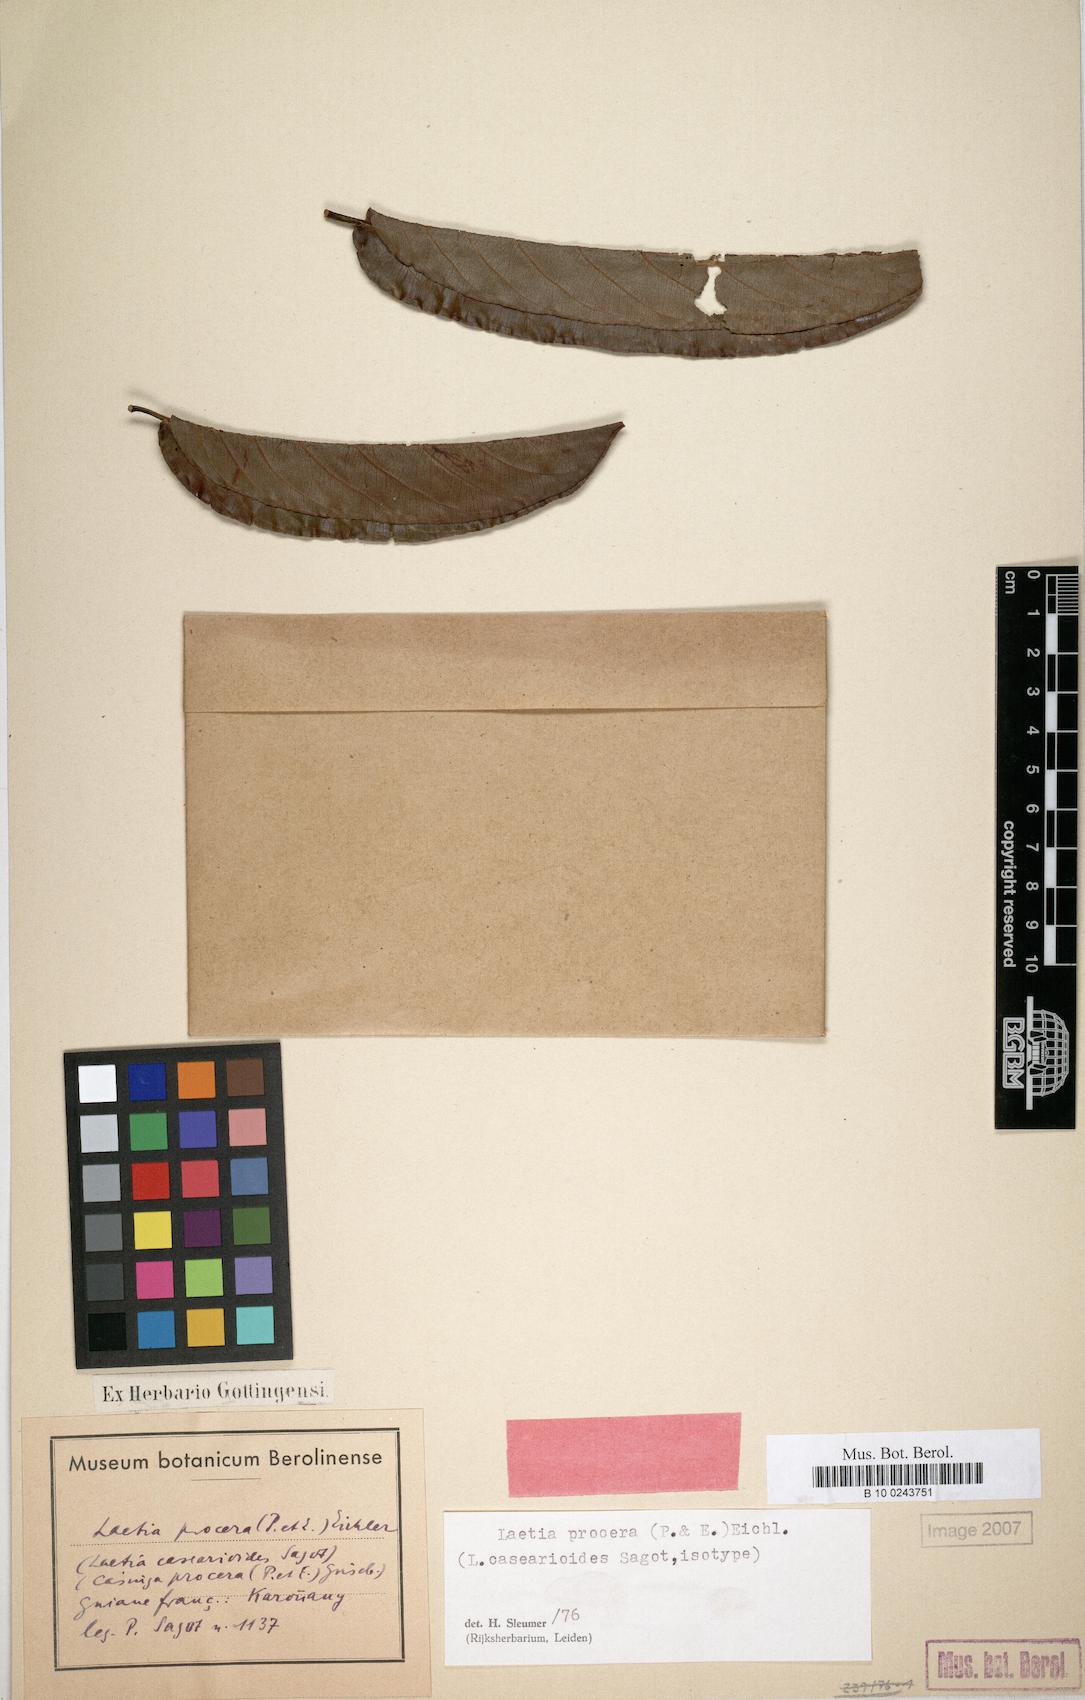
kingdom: Plantae
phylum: Tracheophyta
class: Magnoliopsida
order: Malpighiales
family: Salicaceae
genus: Casearia
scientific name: Casearia bicolor
